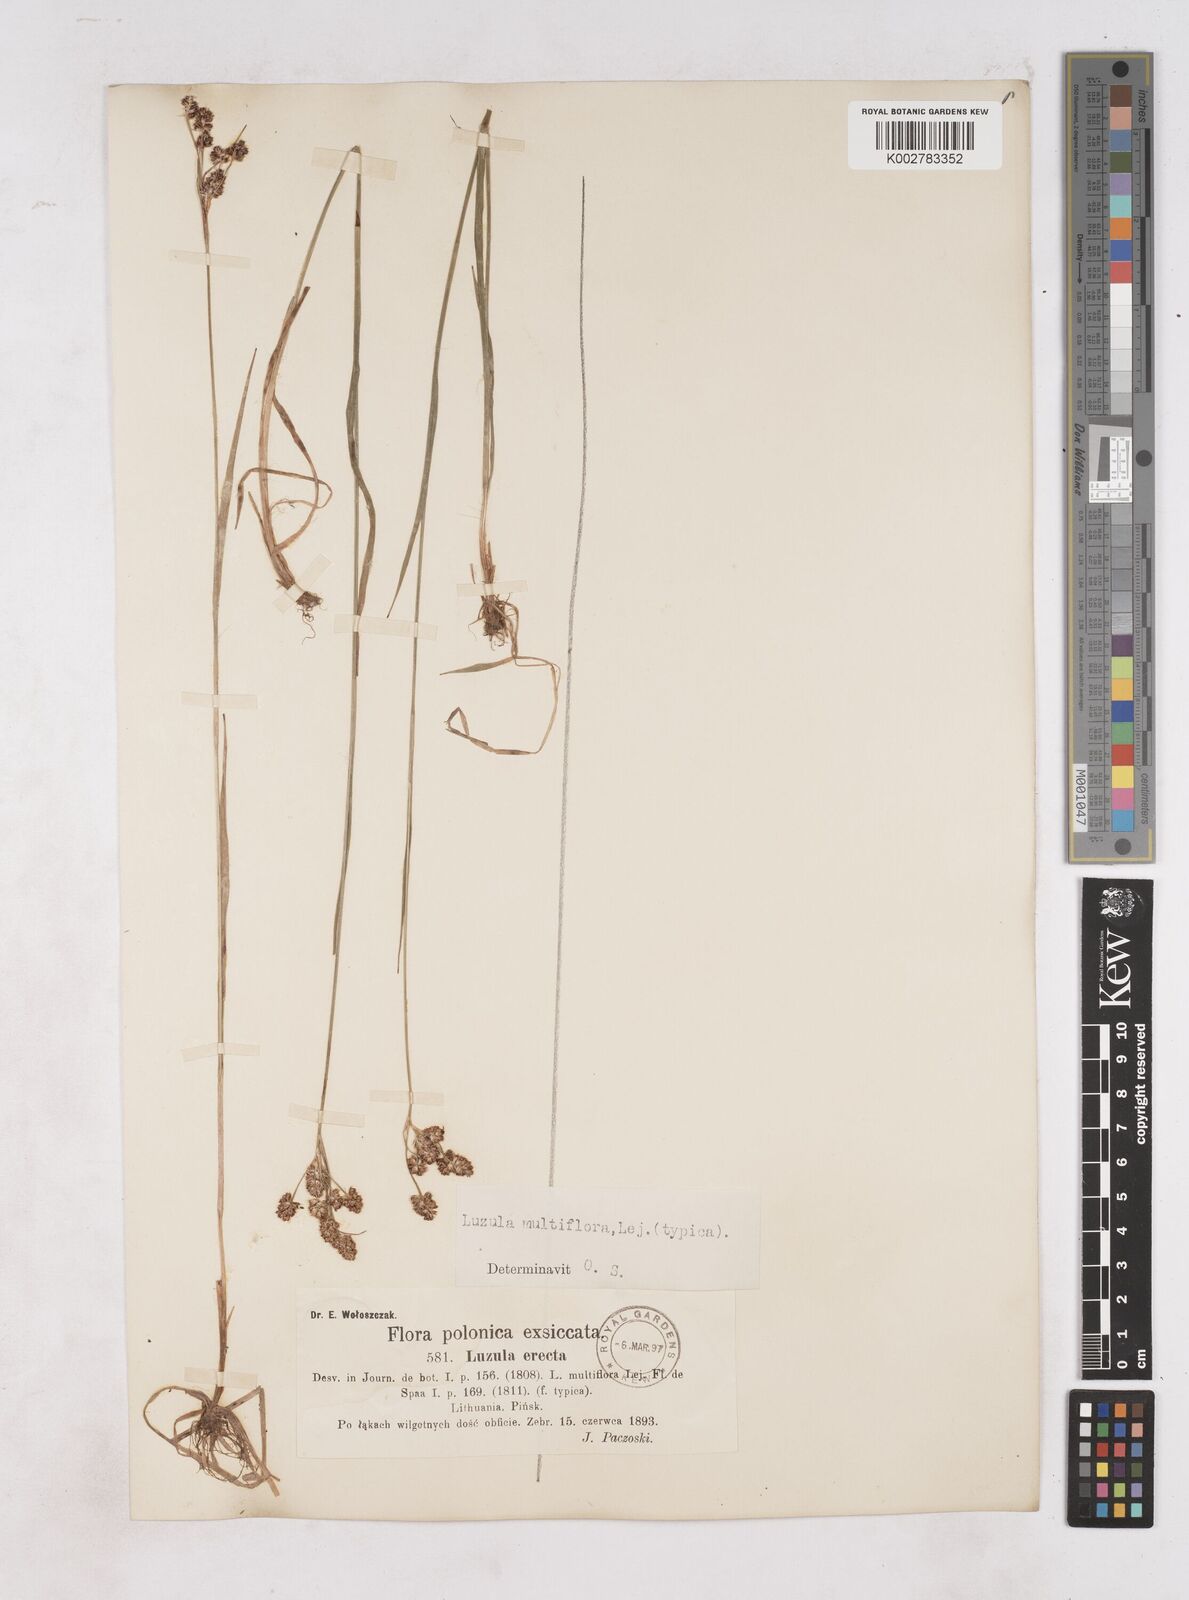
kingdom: Plantae
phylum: Tracheophyta
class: Liliopsida
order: Poales
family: Juncaceae
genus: Luzula
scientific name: Luzula multiflora
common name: Heath wood-rush
